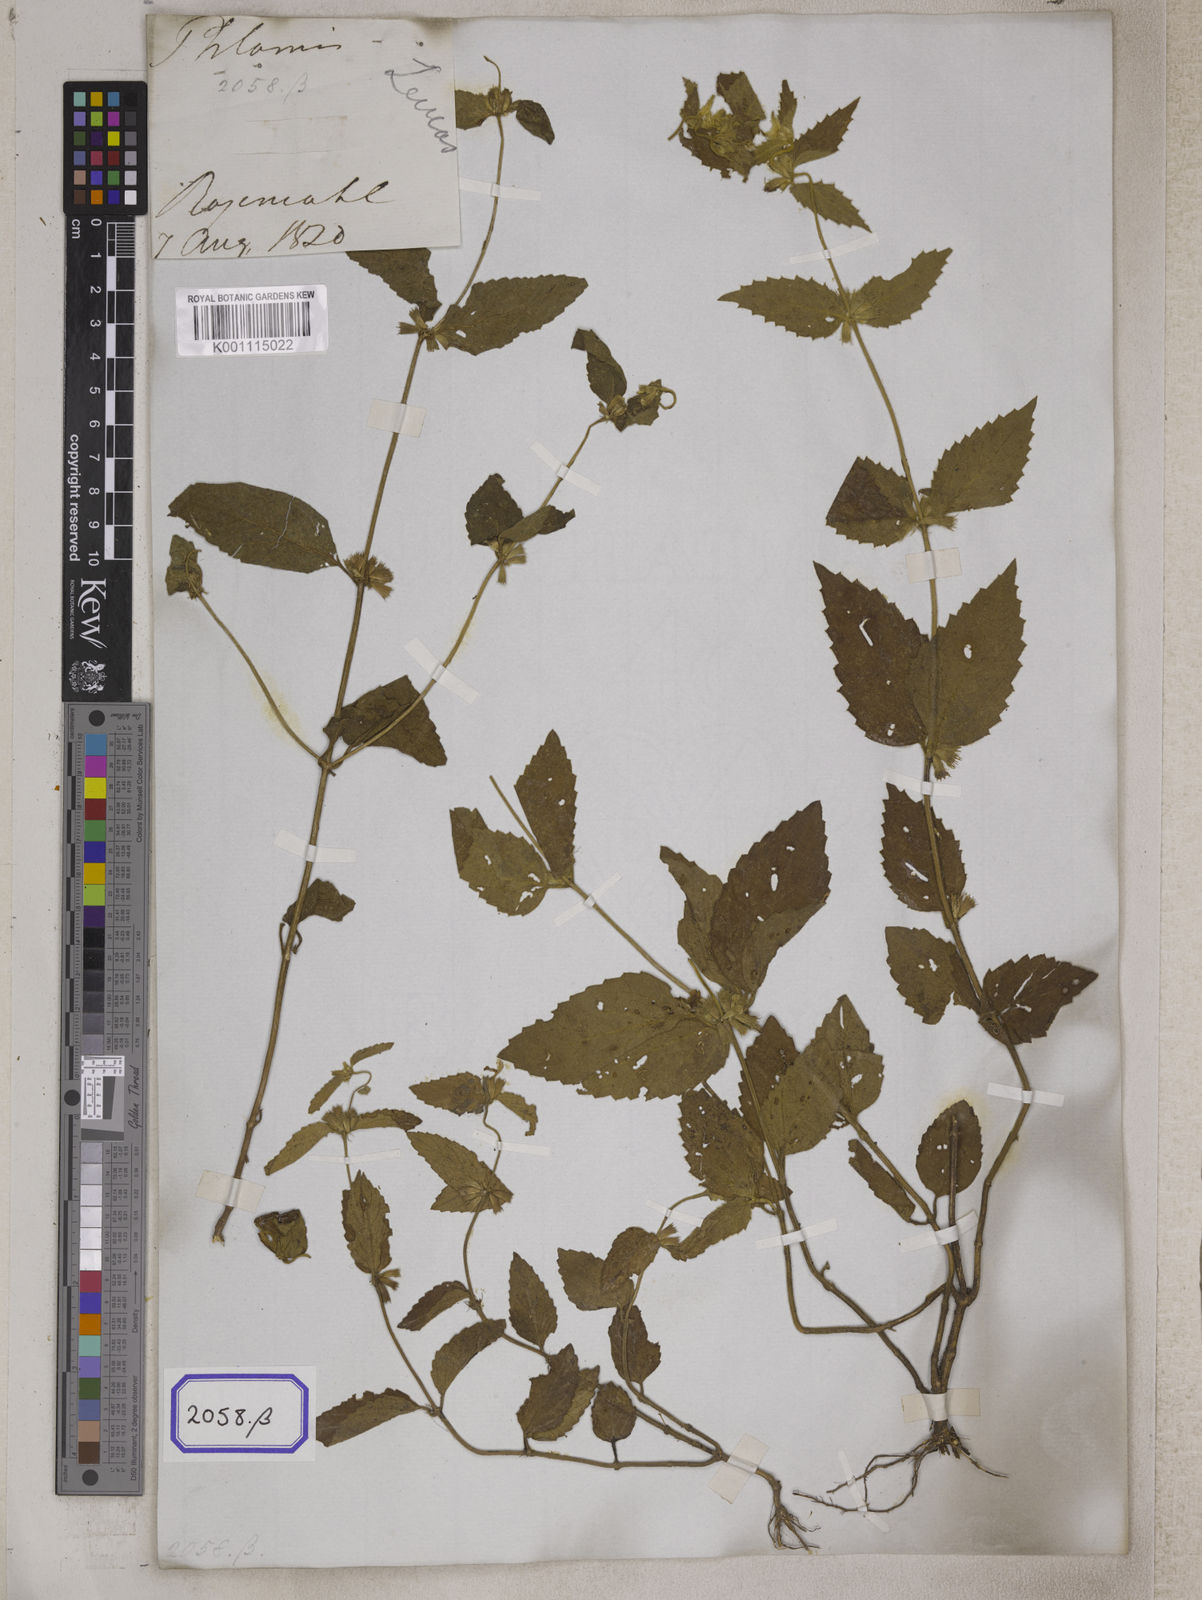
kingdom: Plantae
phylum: Tracheophyta
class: Magnoliopsida
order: Lamiales
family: Lamiaceae
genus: Leucas
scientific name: Leucas
